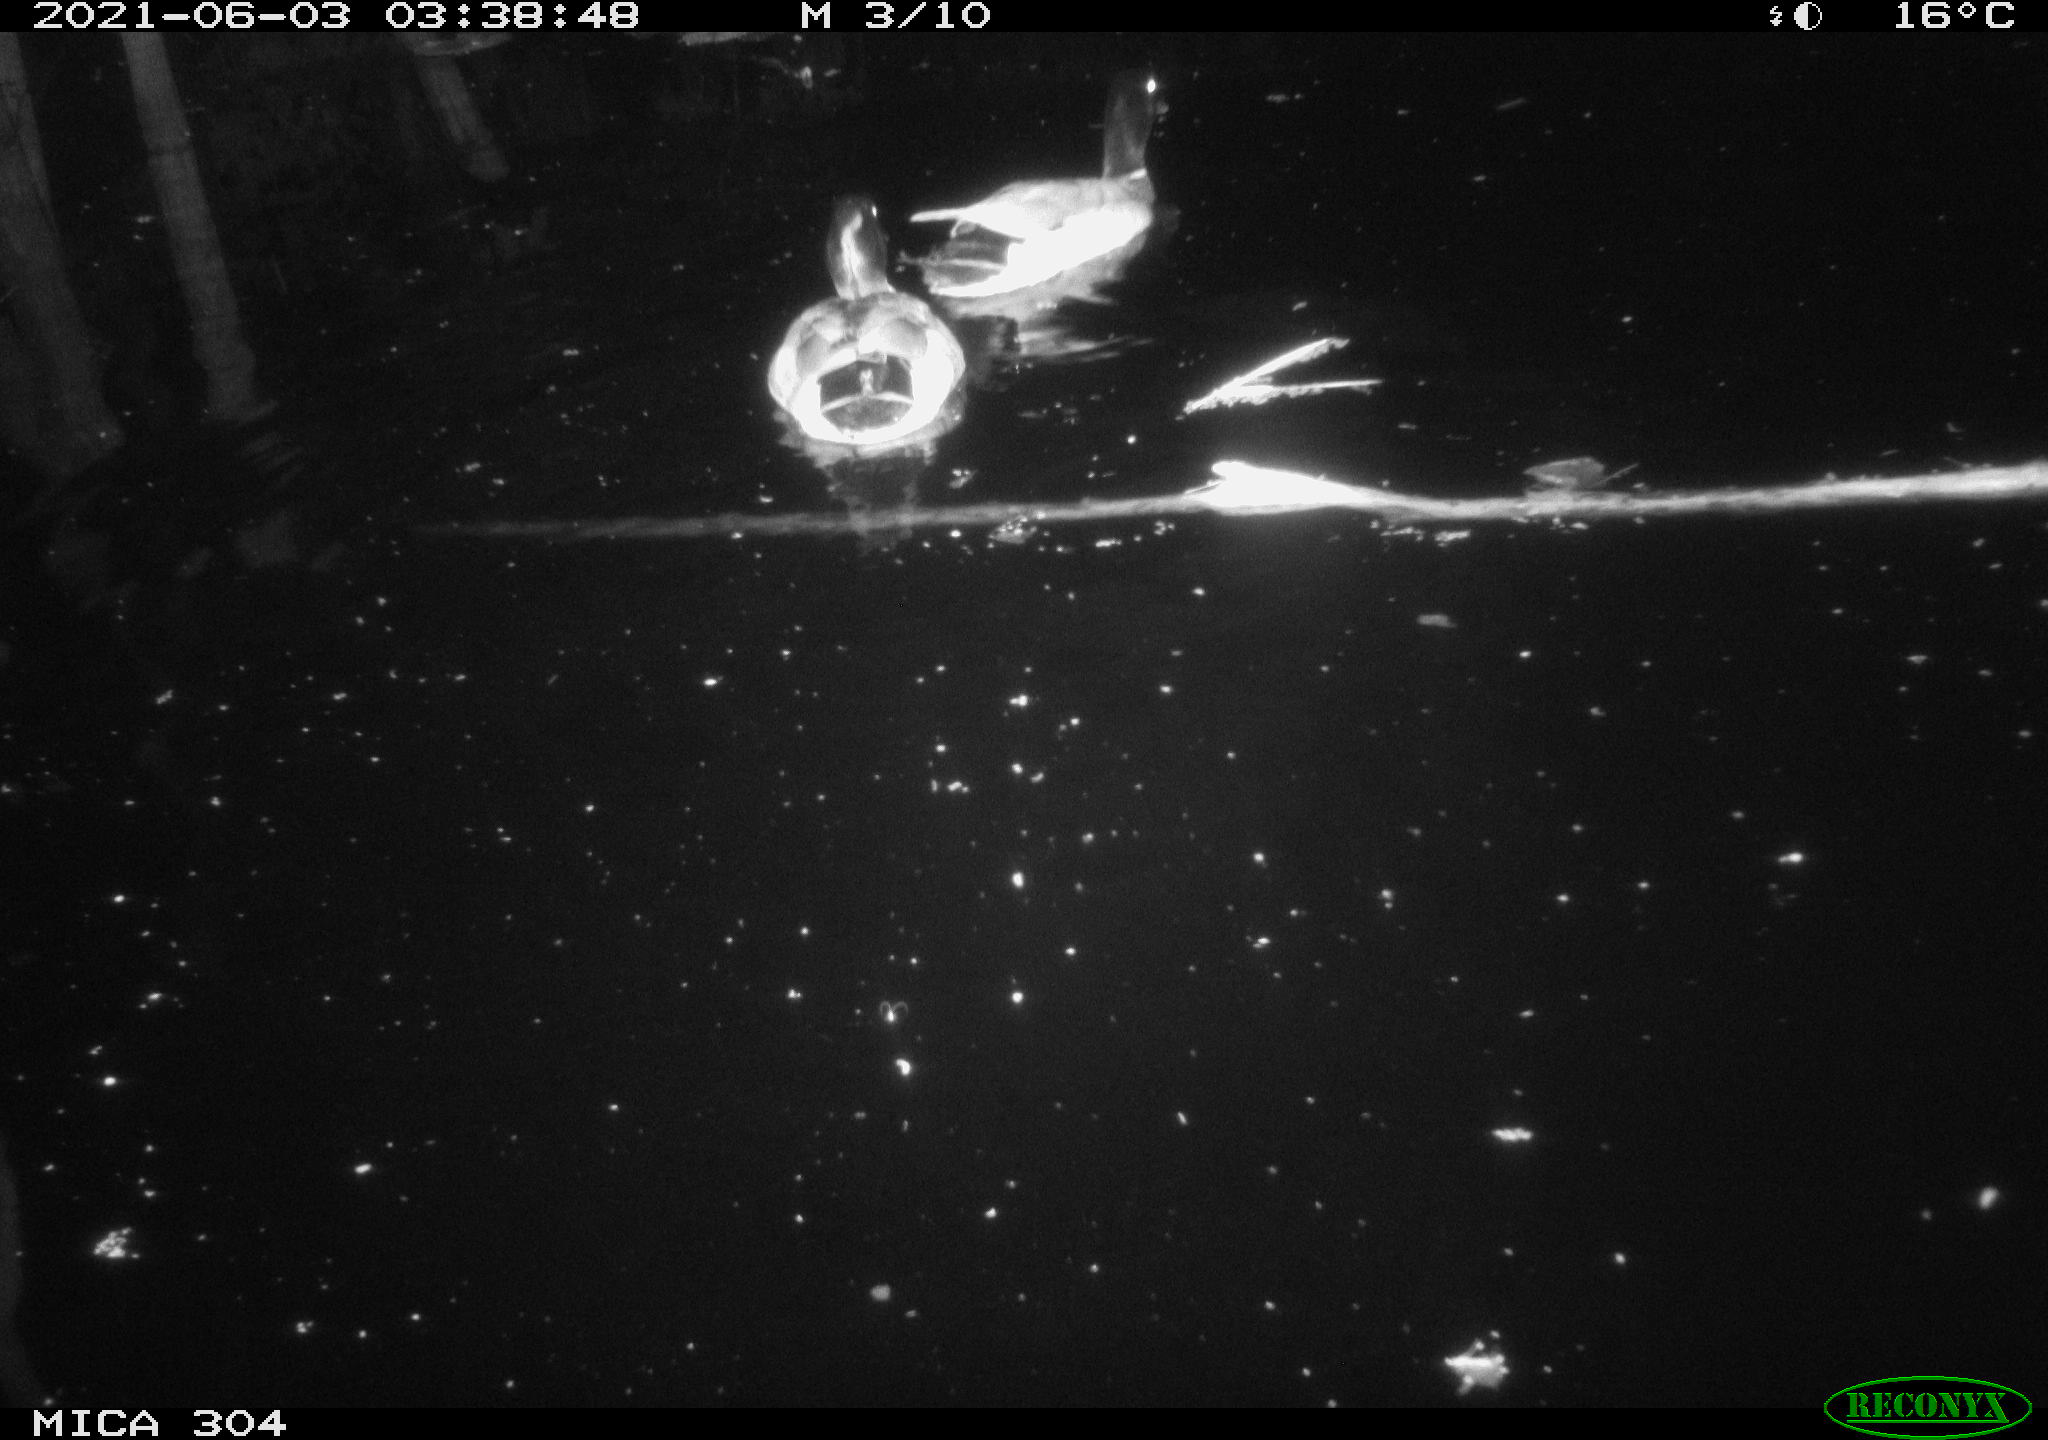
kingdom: Animalia
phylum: Chordata
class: Aves
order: Anseriformes
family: Anatidae
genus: Anas
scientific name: Anas platyrhynchos
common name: Mallard
